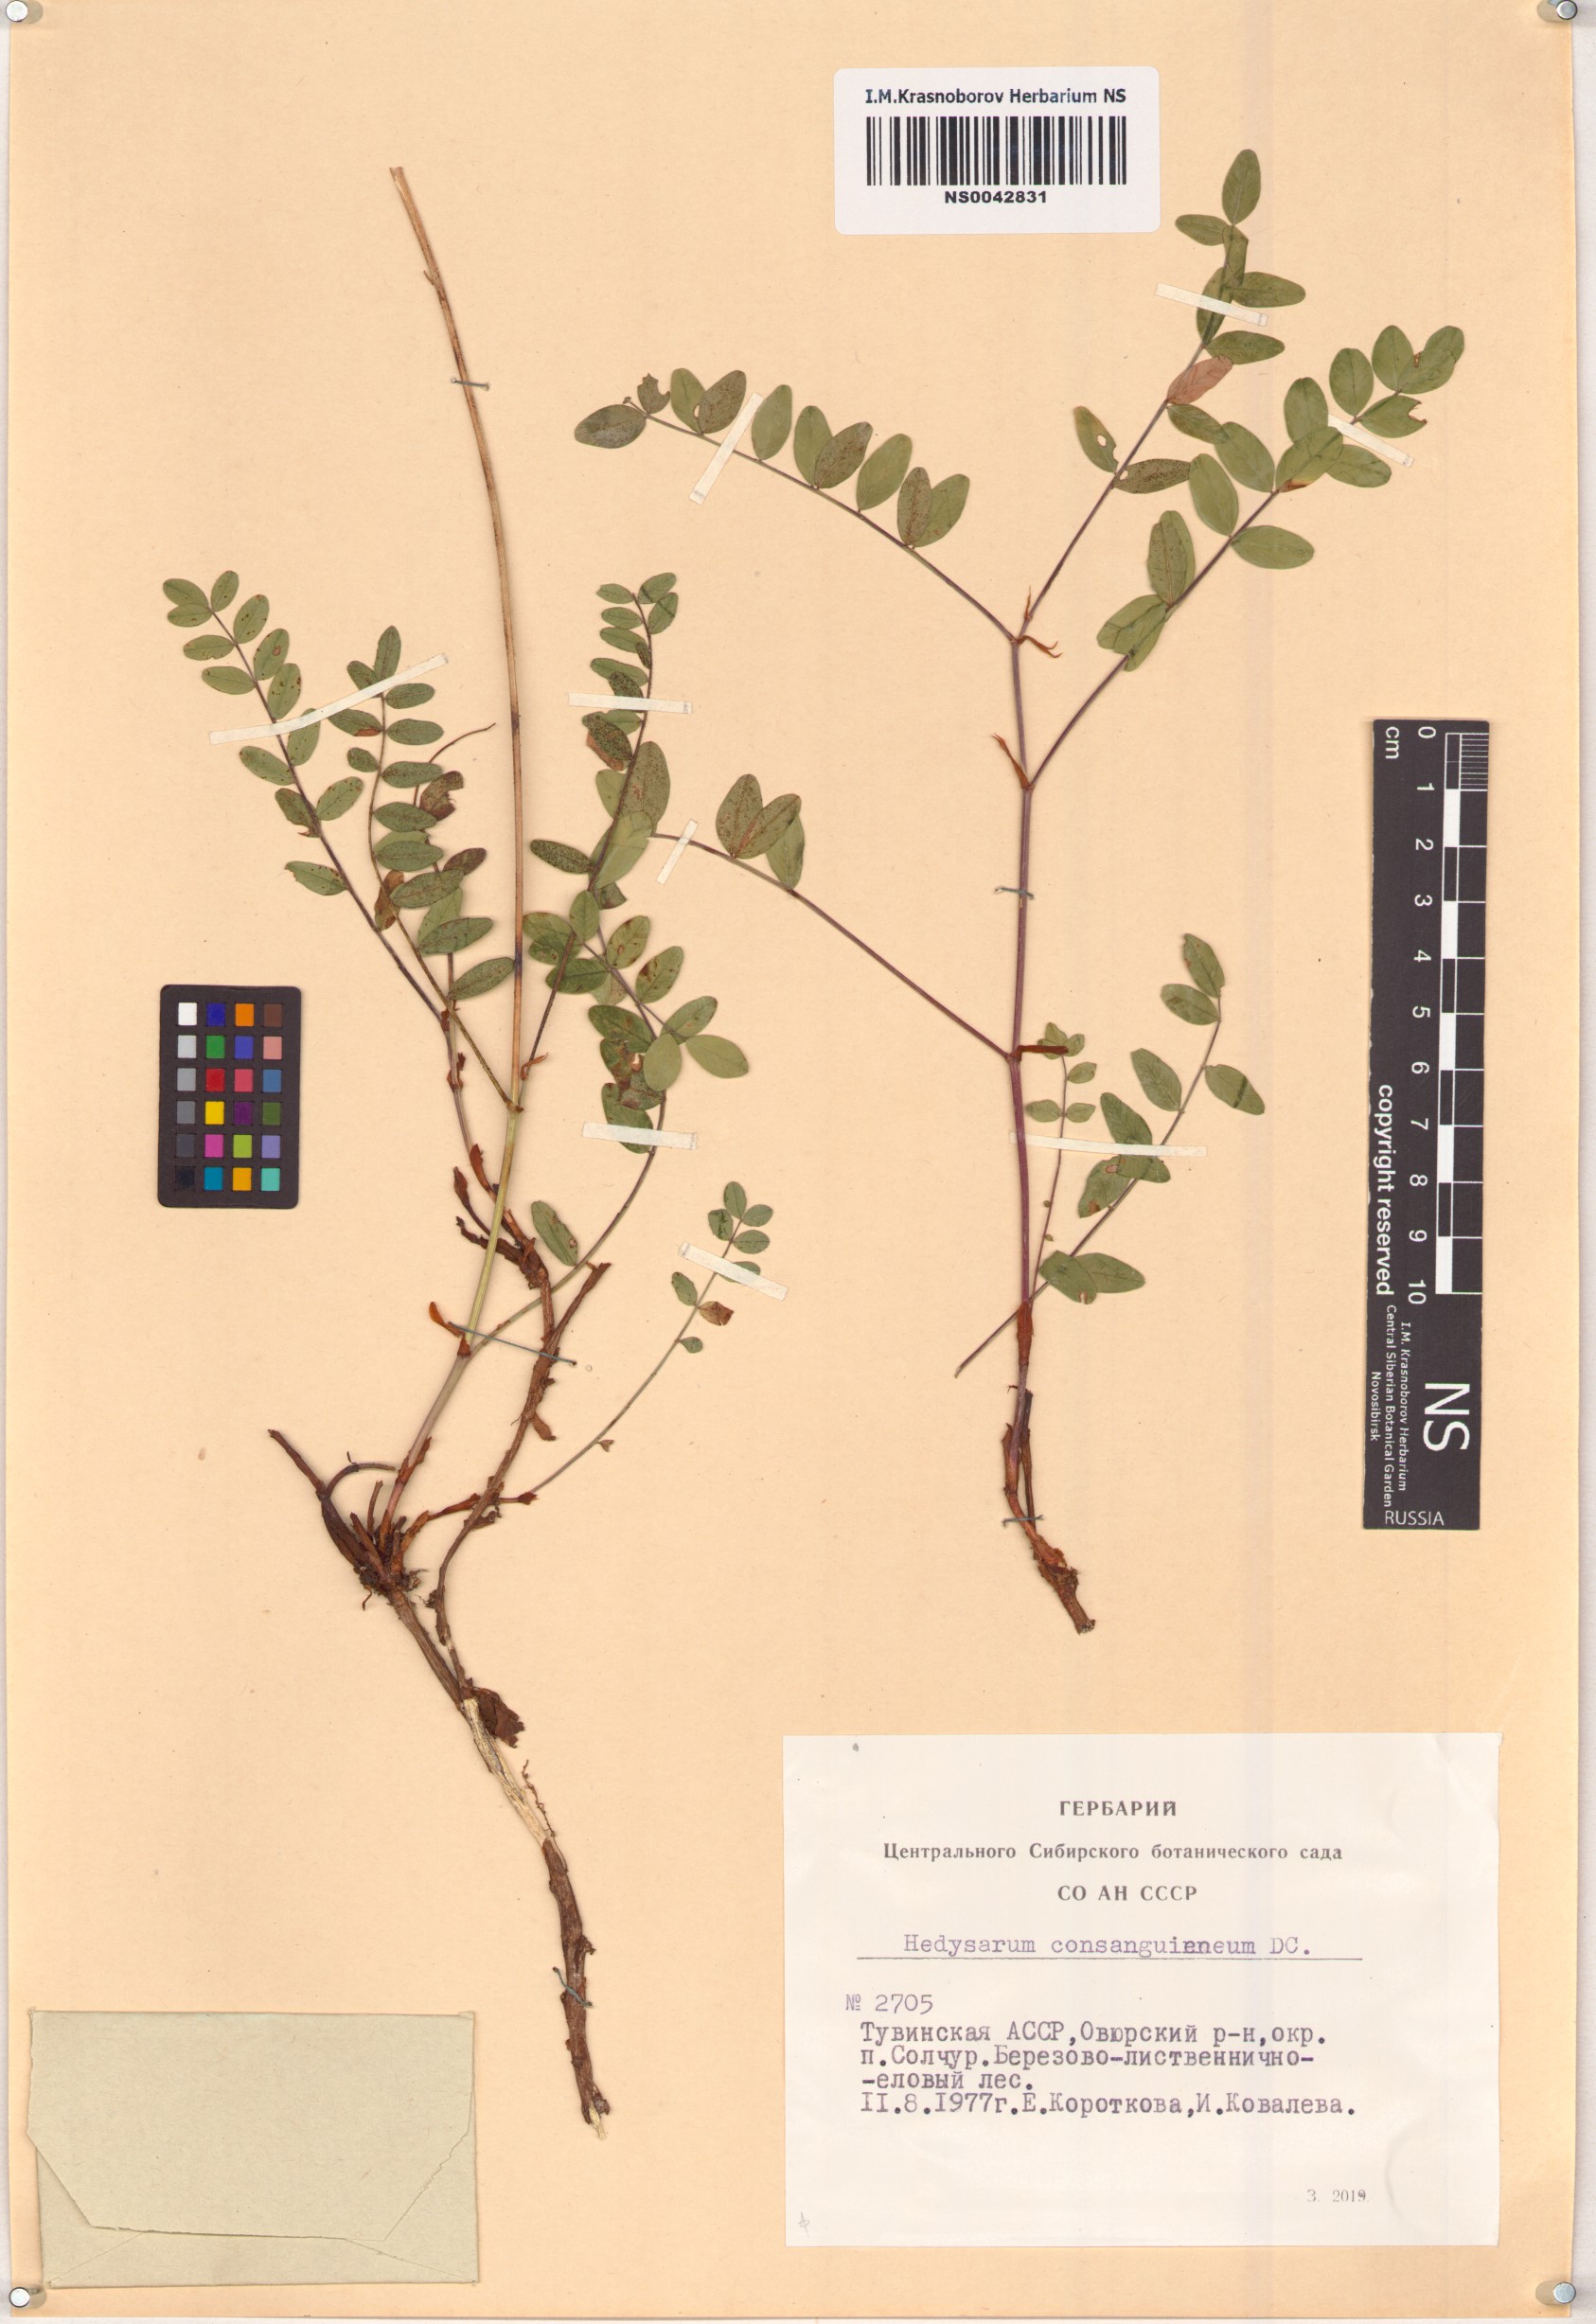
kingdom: Plantae
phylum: Tracheophyta
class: Magnoliopsida
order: Fabales
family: Fabaceae
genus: Hedysarum
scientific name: Hedysarum consanguineum
